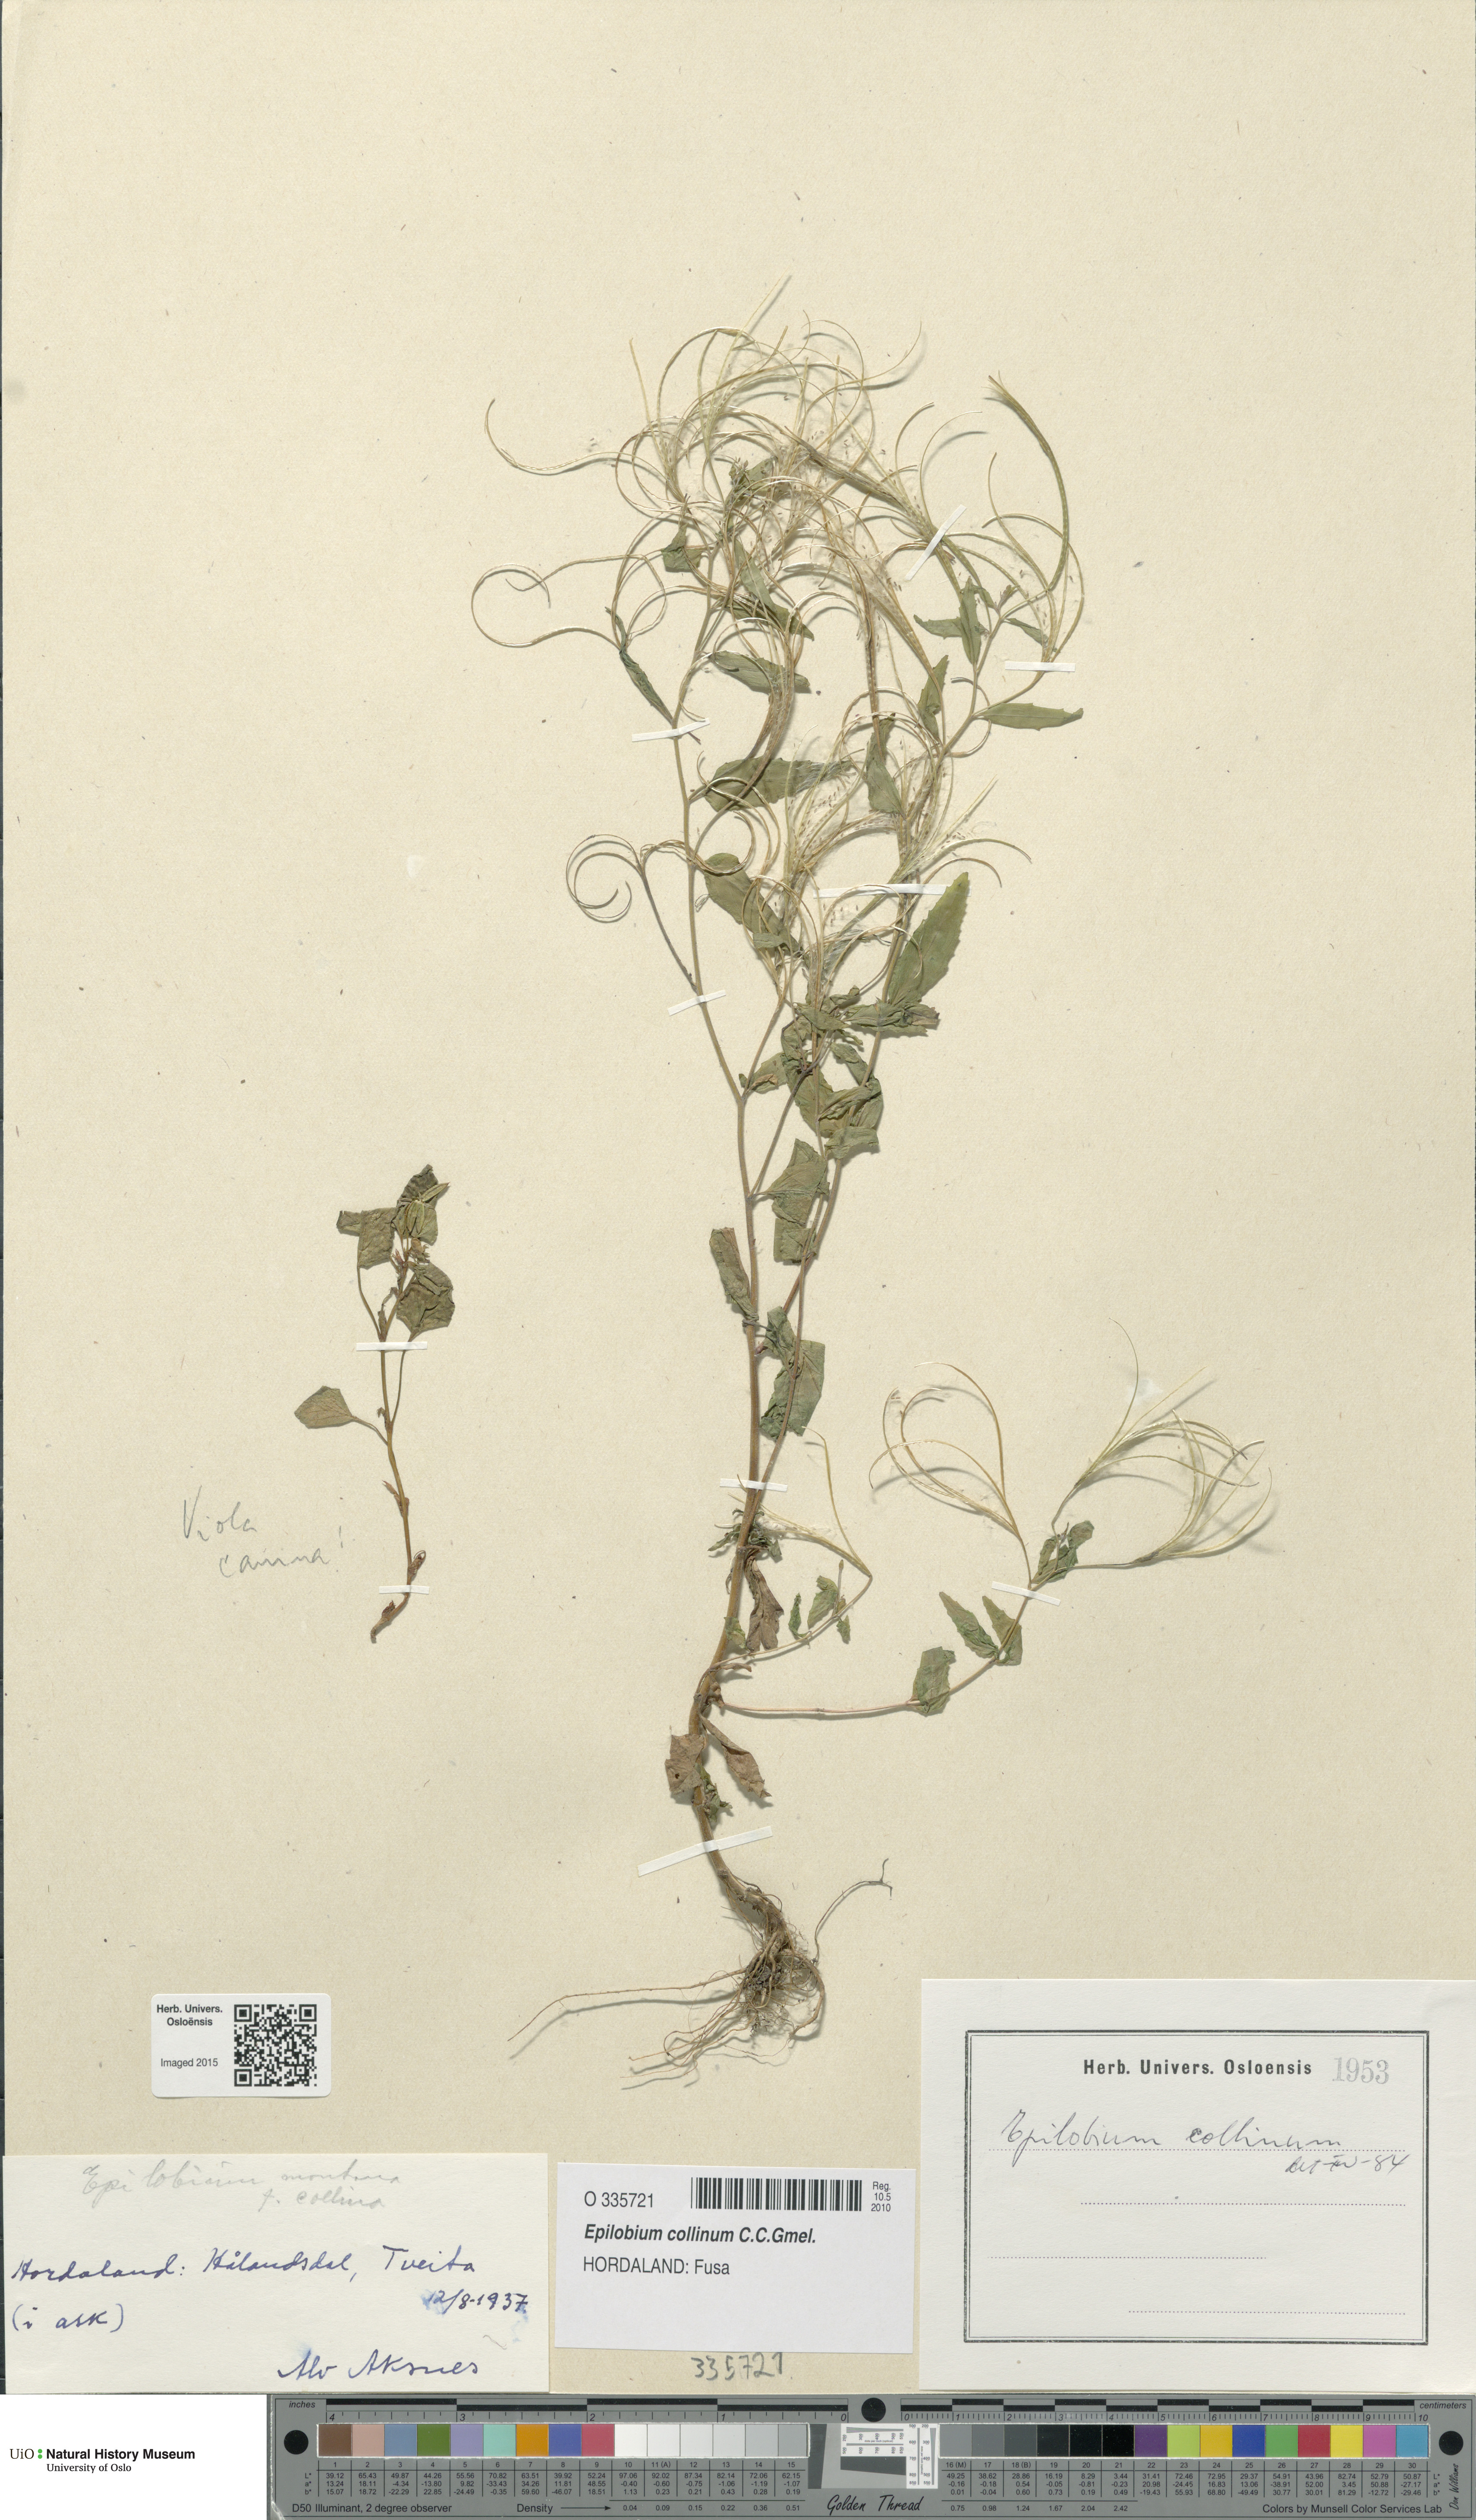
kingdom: Plantae
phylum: Tracheophyta
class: Magnoliopsida
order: Myrtales
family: Onagraceae
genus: Epilobium
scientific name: Epilobium collinum
